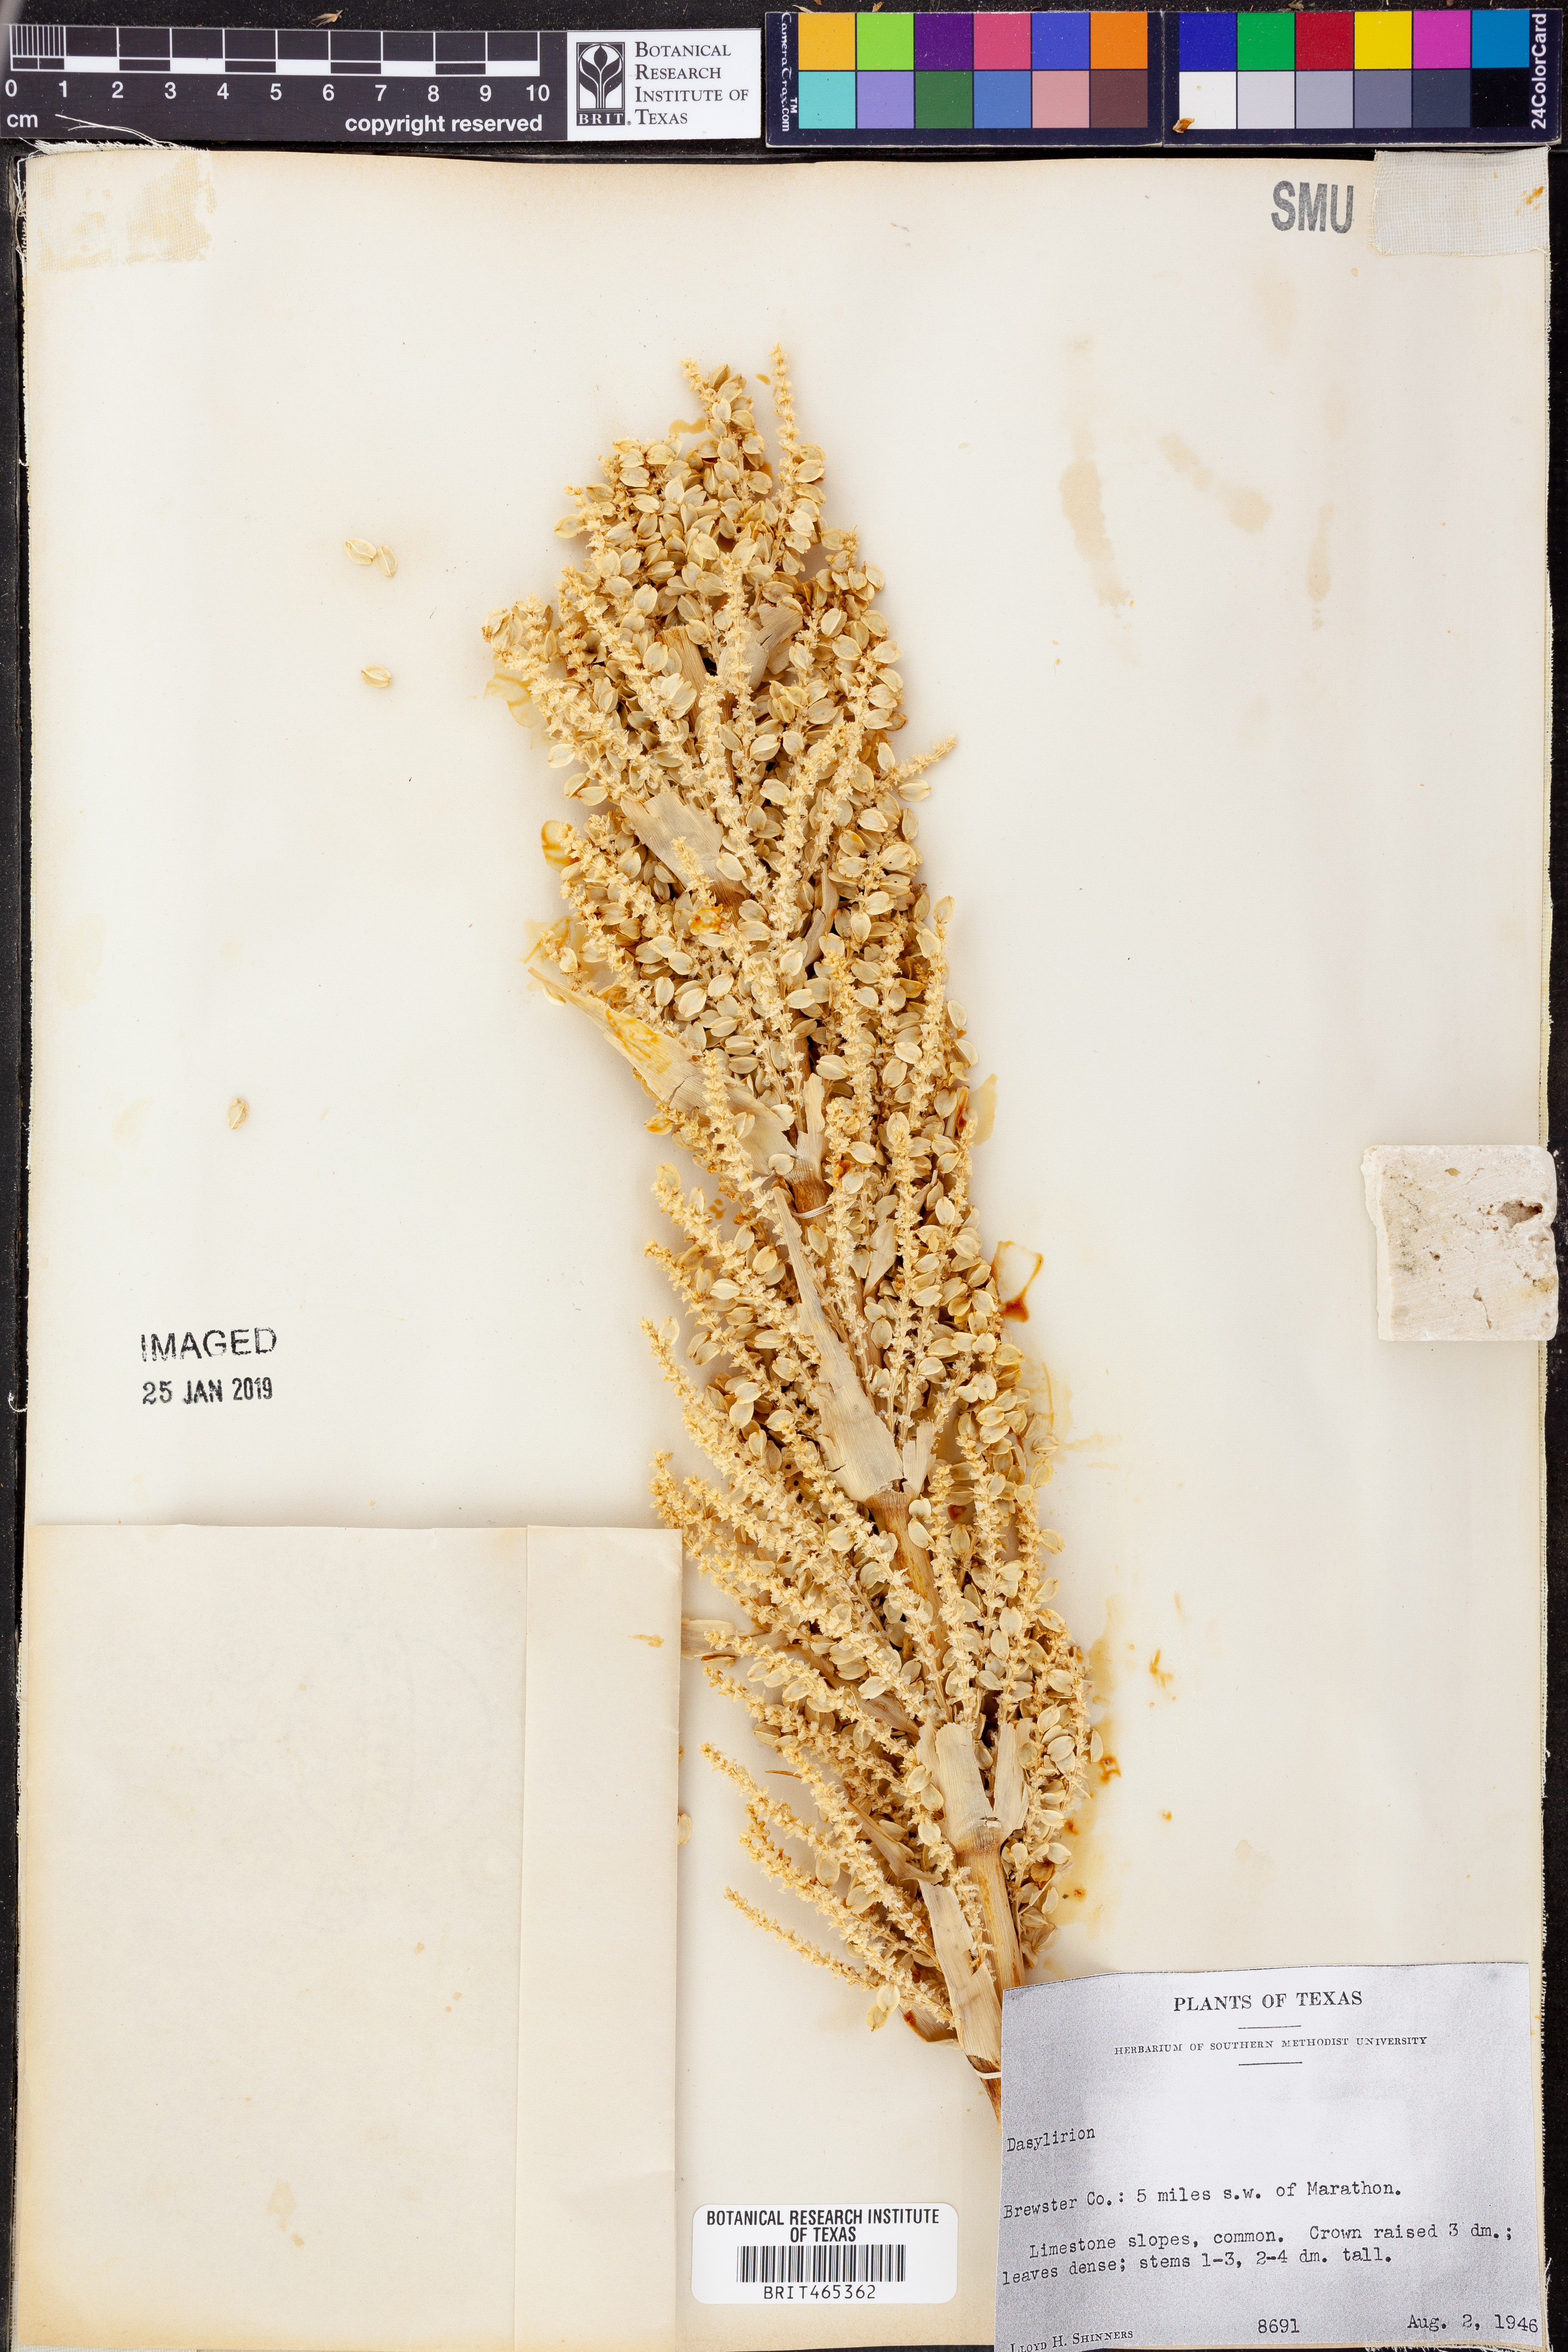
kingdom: Plantae
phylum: Tracheophyta
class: Liliopsida
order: Asparagales
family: Asparagaceae
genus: Dasylirion
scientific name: Dasylirion
